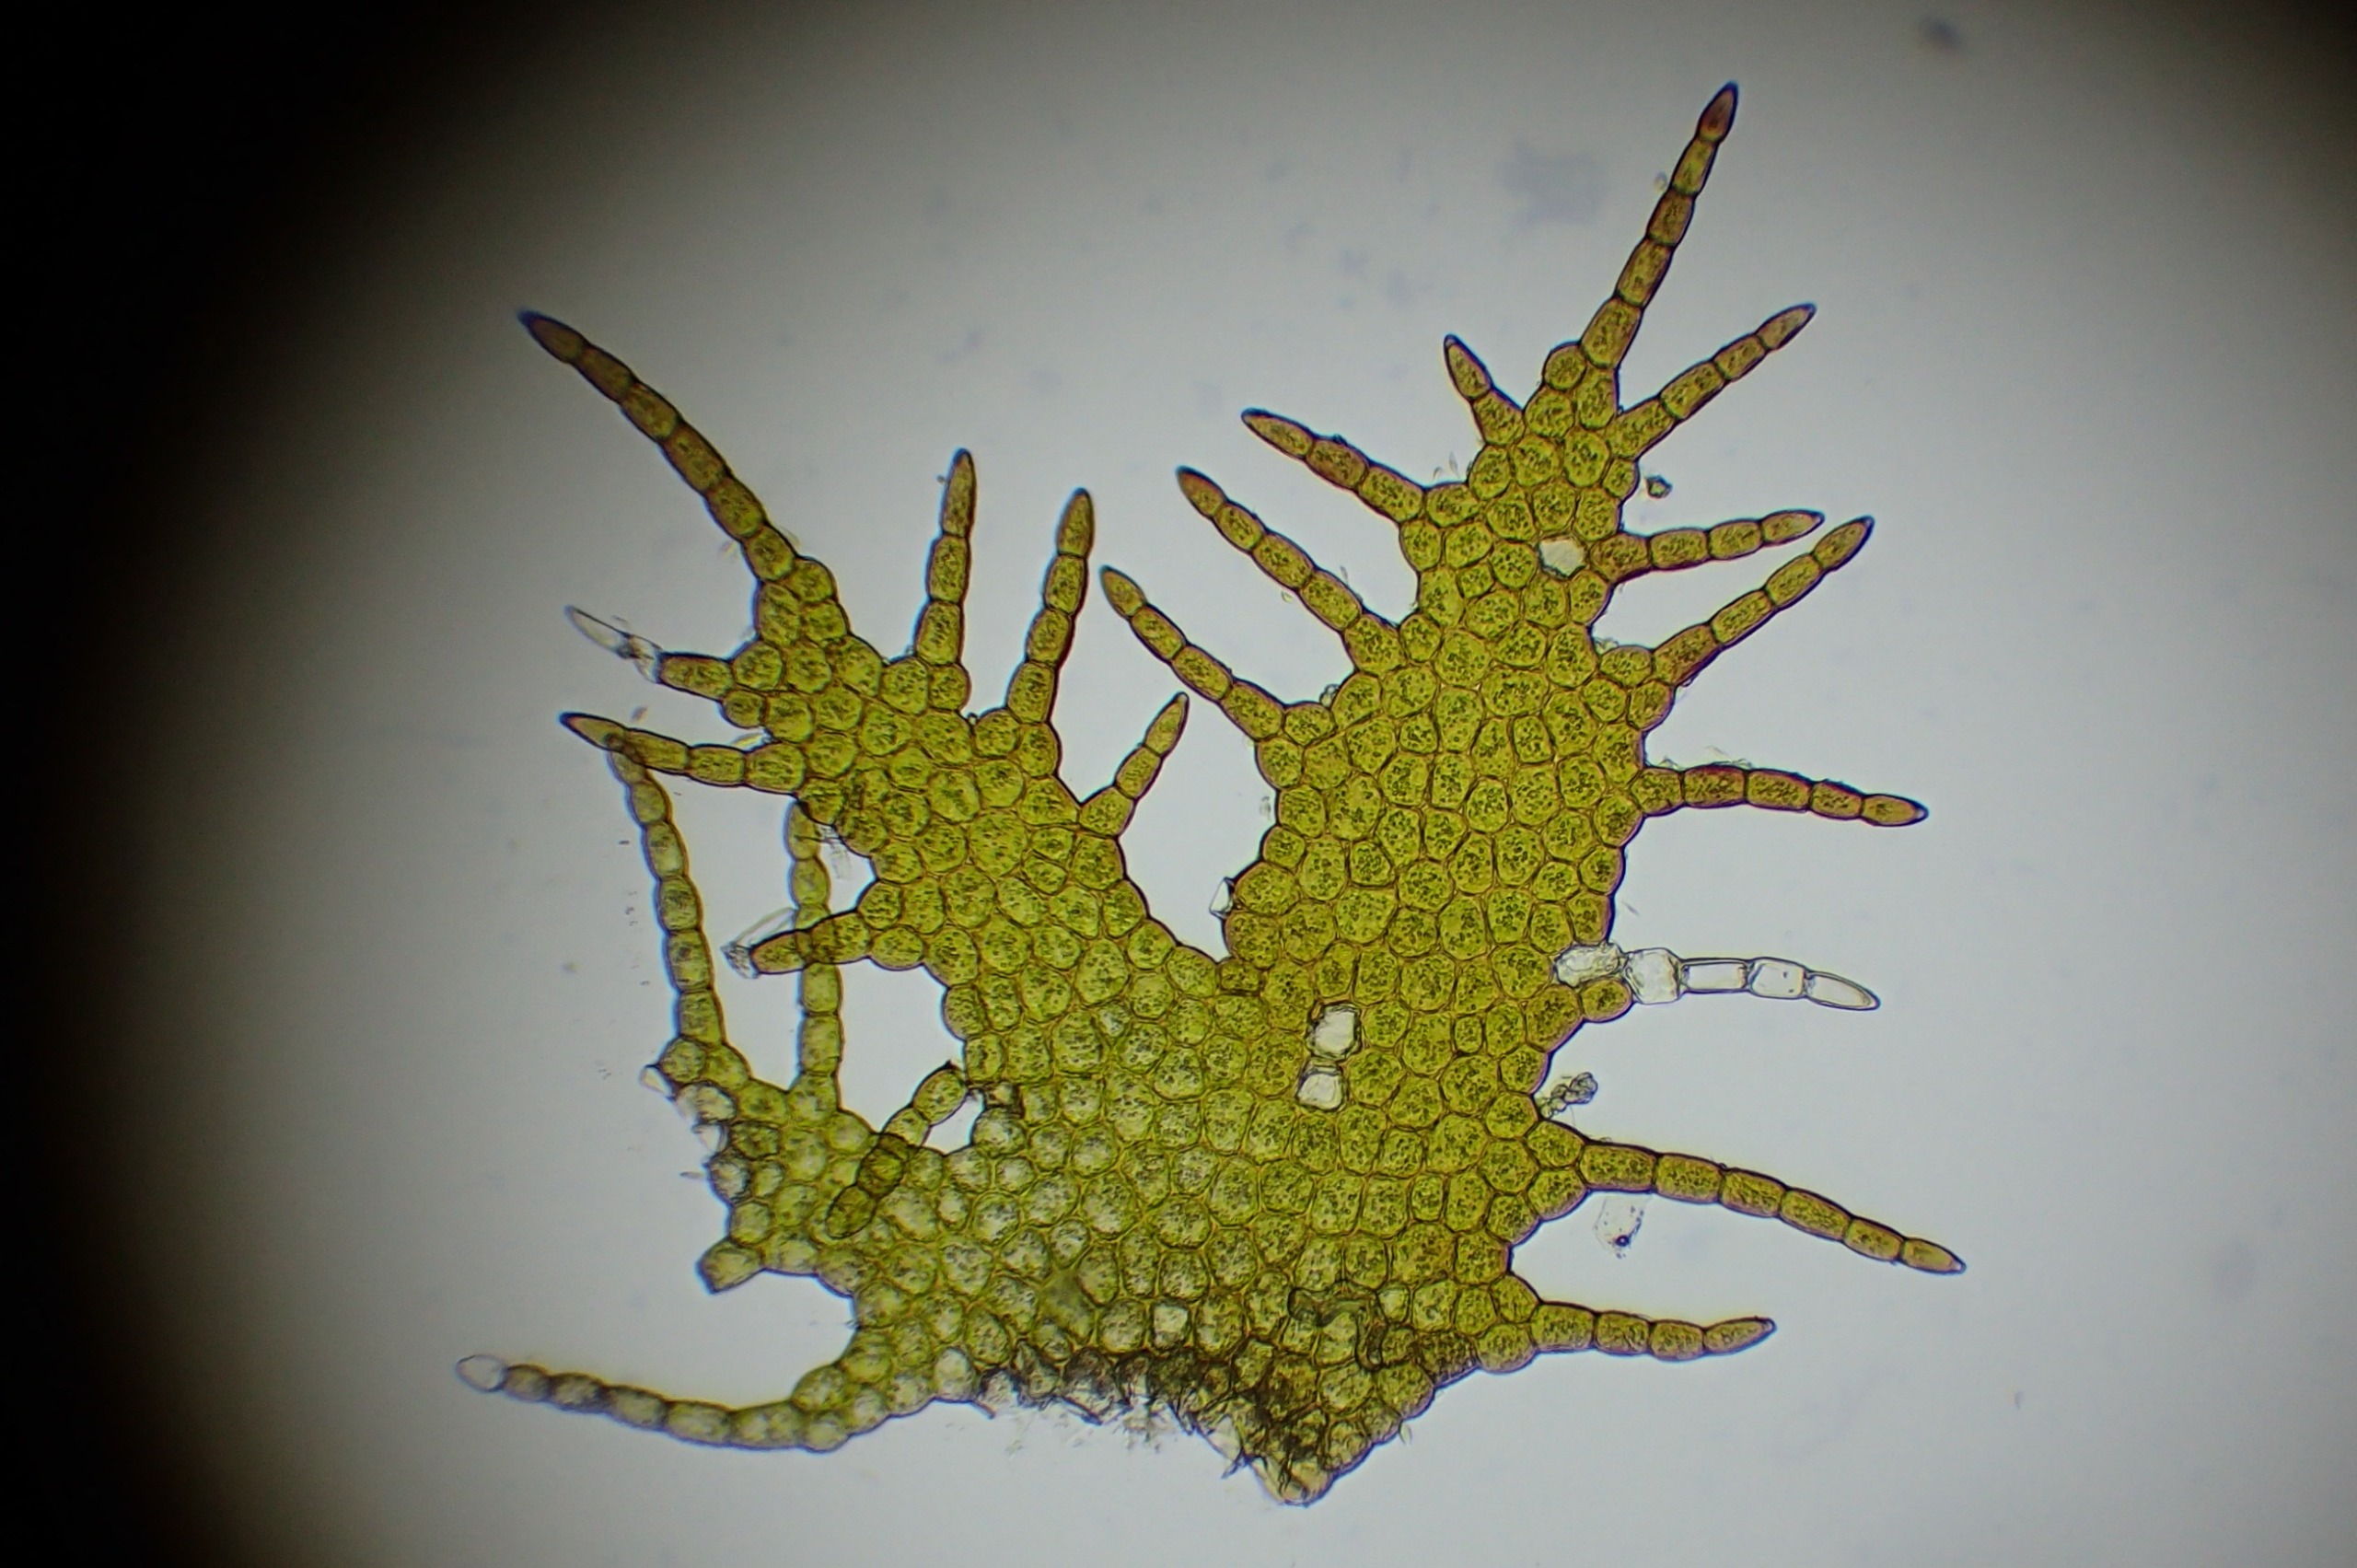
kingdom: Plantae
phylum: Marchantiophyta
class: Jungermanniopsida
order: Ptilidiales
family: Ptilidiaceae
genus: Ptilidium
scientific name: Ptilidium pulcherrimum
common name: Stub-frynsemos
